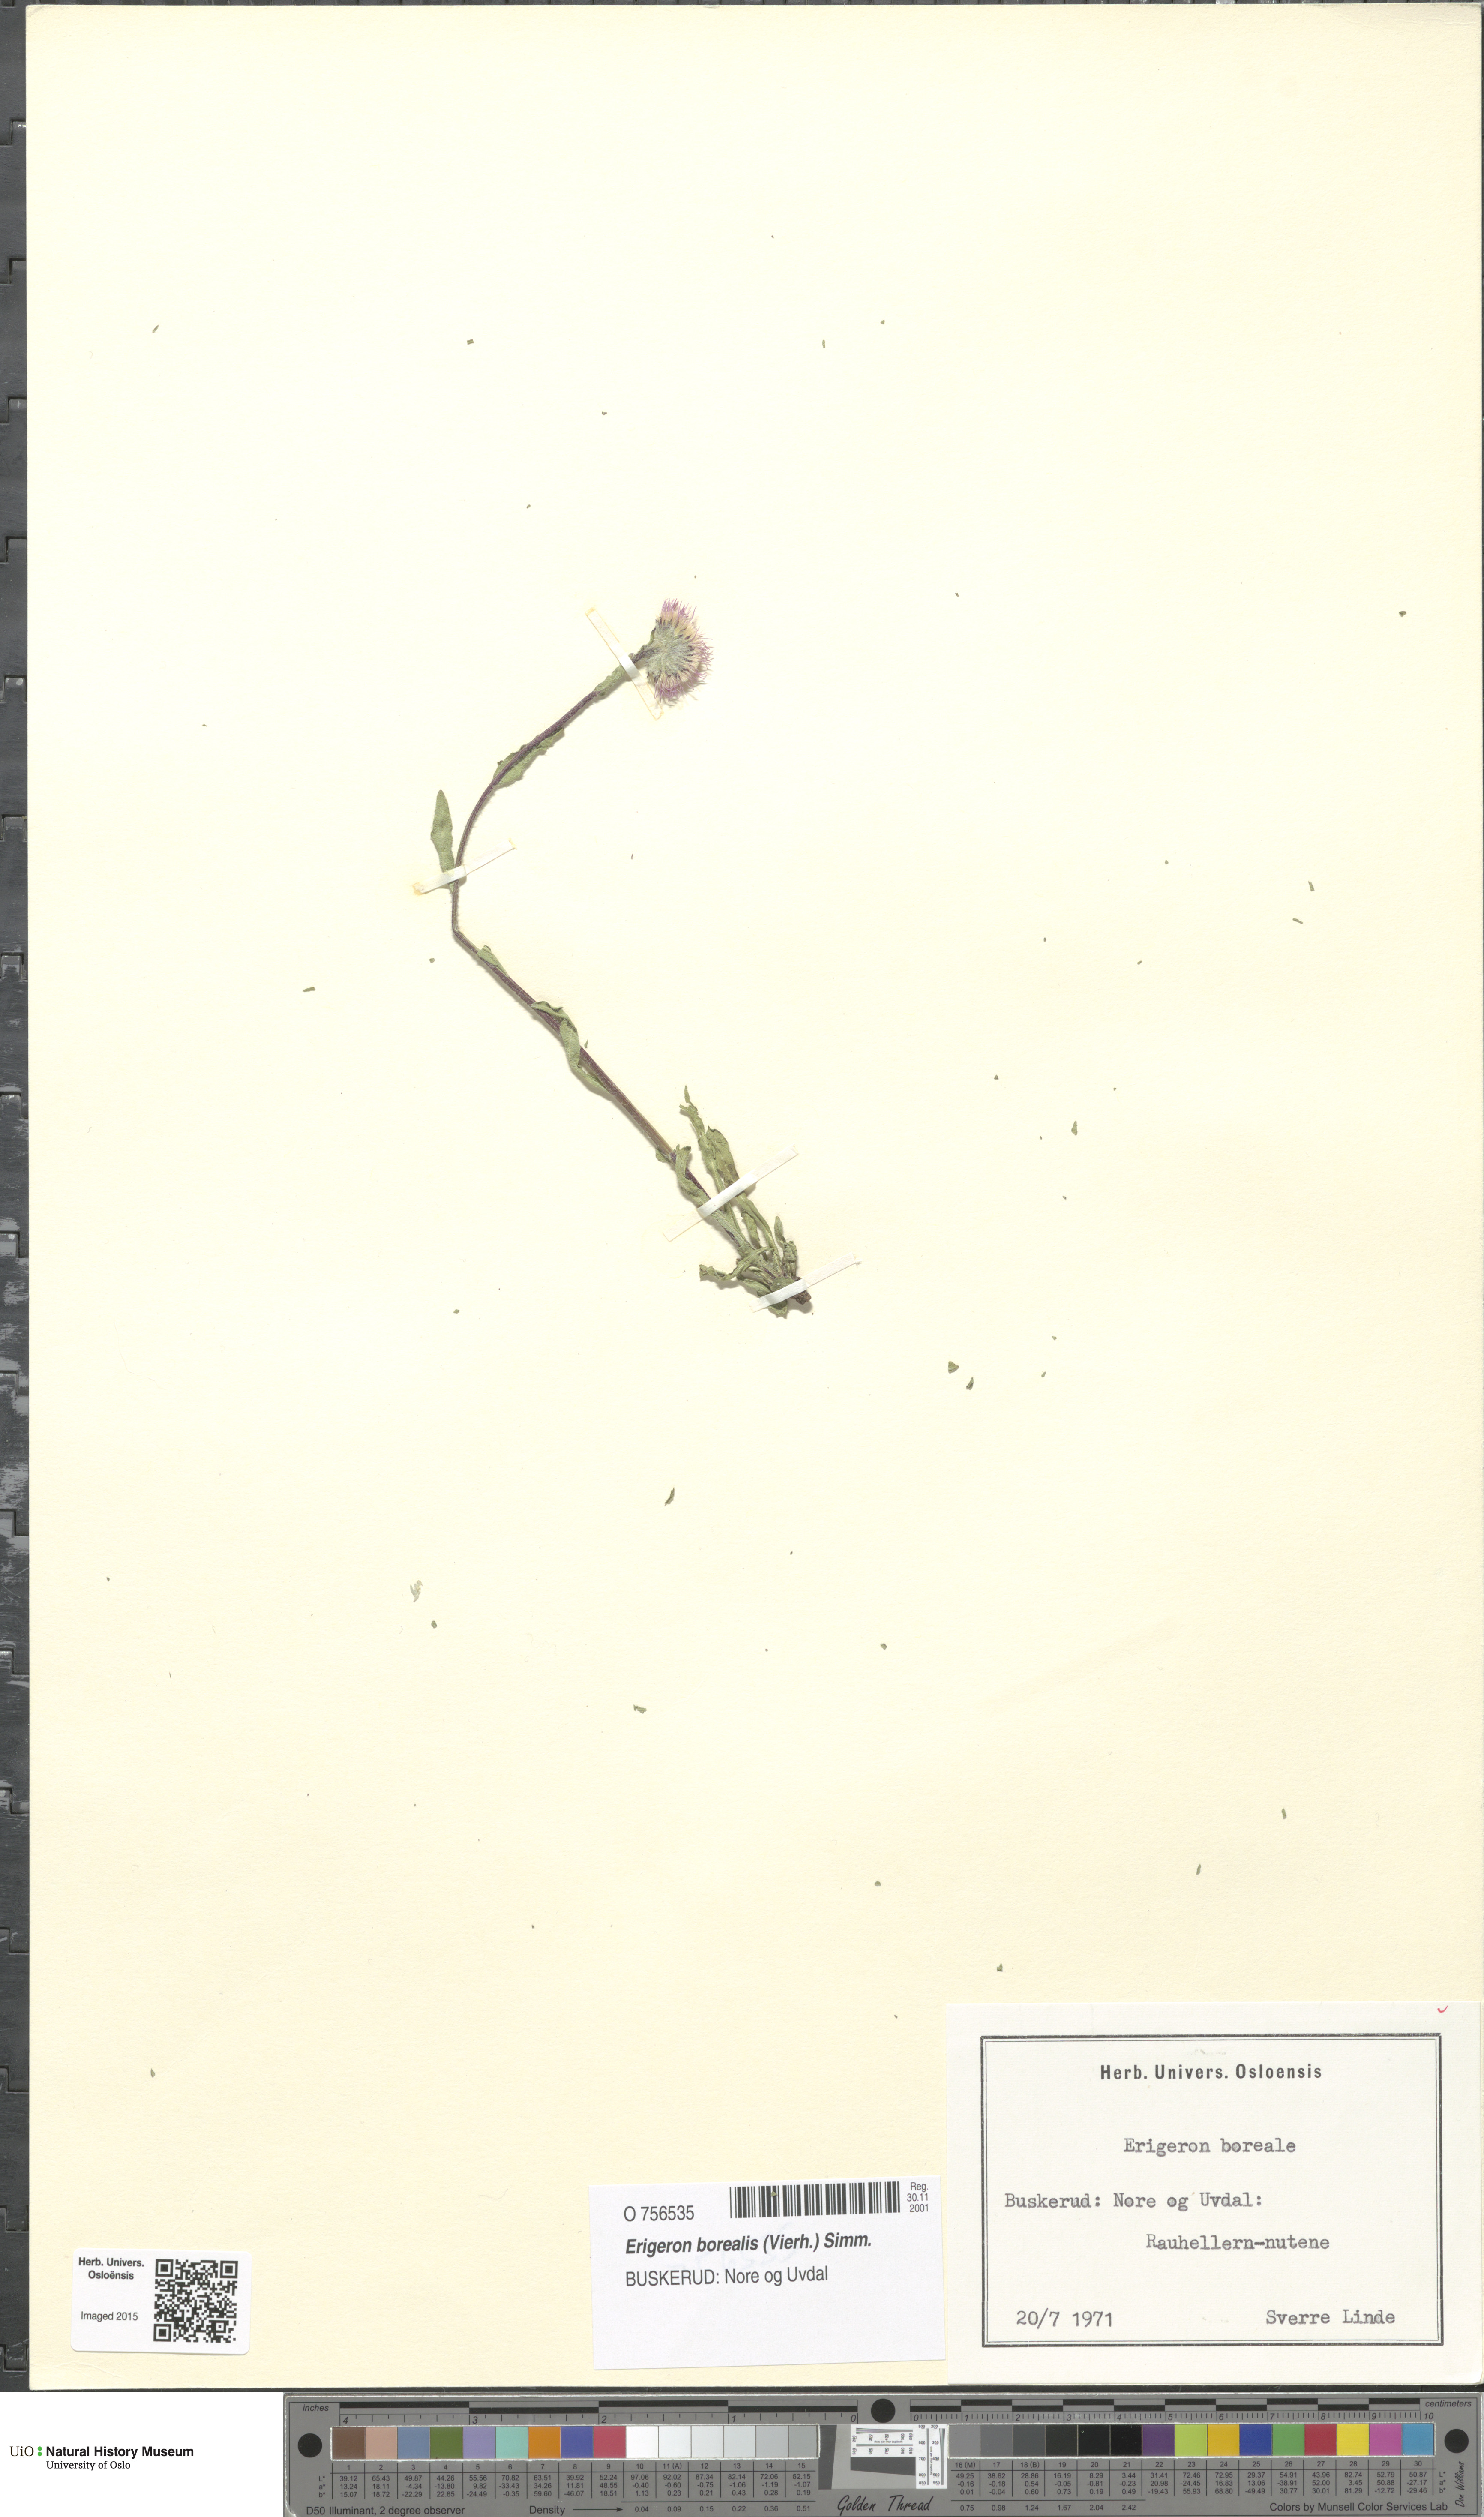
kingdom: Plantae
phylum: Tracheophyta
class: Magnoliopsida
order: Asterales
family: Asteraceae
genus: Erigeron
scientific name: Erigeron borealis
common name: Alpine fleabane
